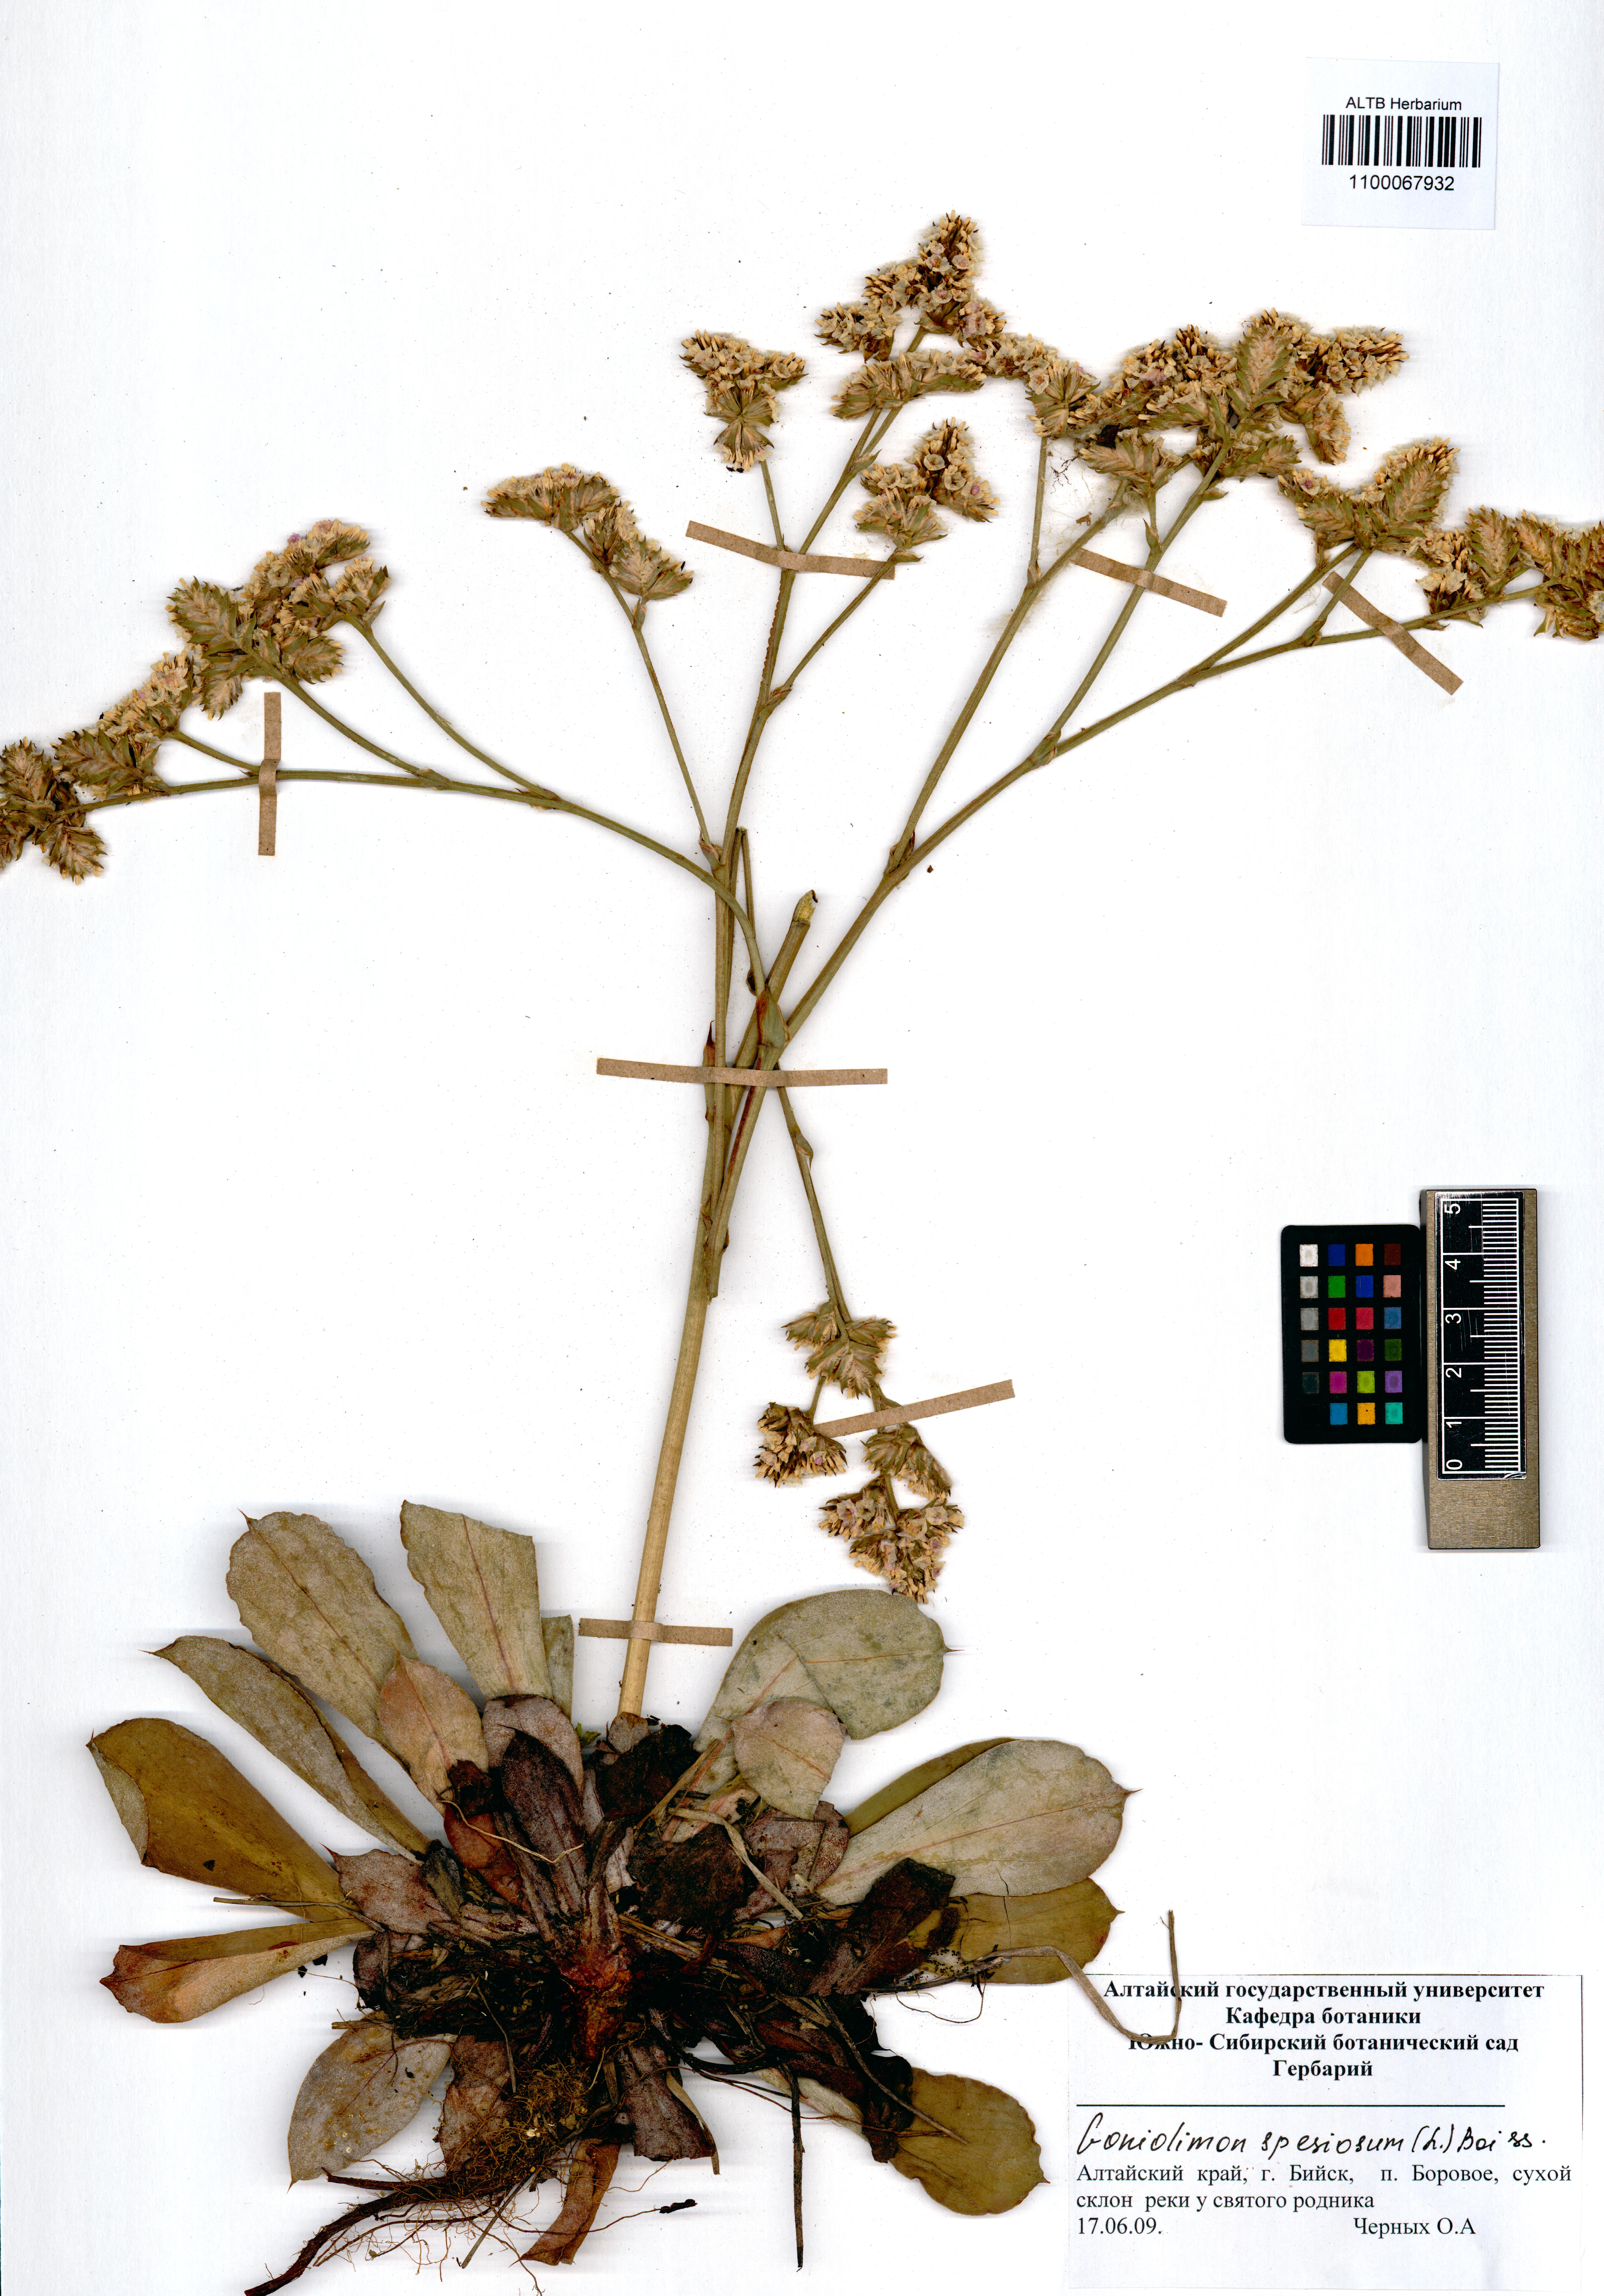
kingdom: Plantae
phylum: Tracheophyta
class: Magnoliopsida
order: Caryophyllales
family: Plumbaginaceae
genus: Goniolimon
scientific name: Goniolimon speciosum
